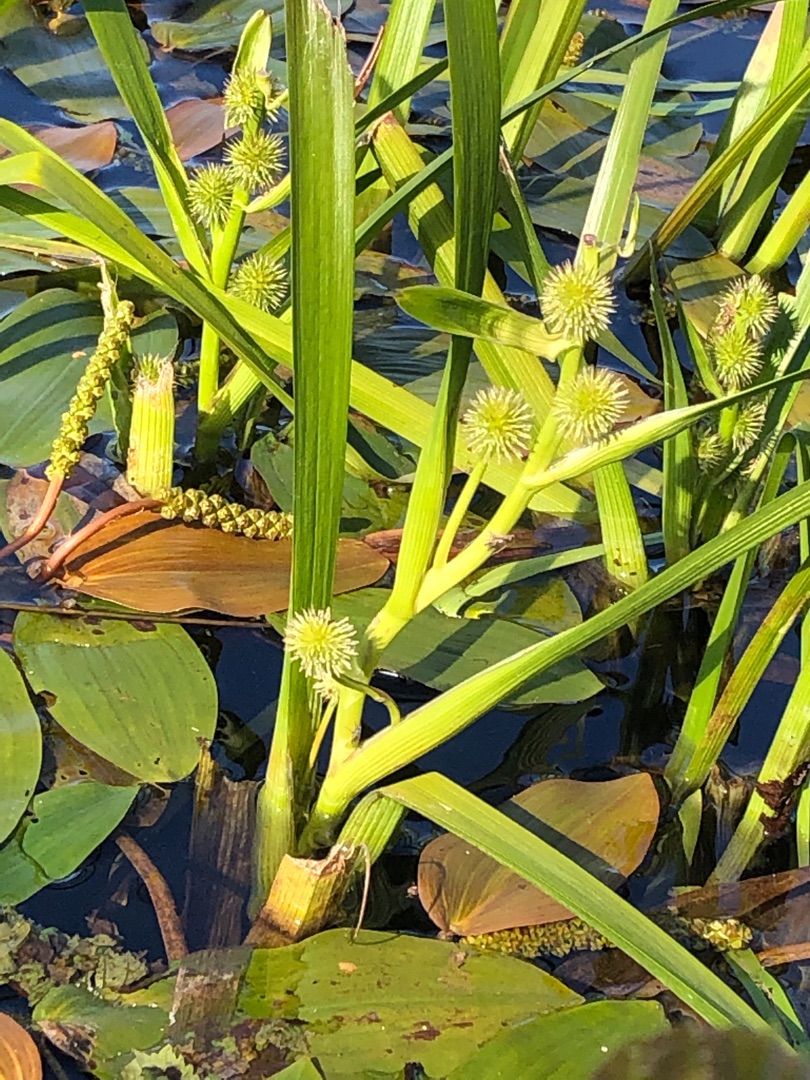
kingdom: Plantae
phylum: Tracheophyta
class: Liliopsida
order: Poales
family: Typhaceae
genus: Sparganium
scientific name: Sparganium emersum
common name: Enkelt pindsvineknop
